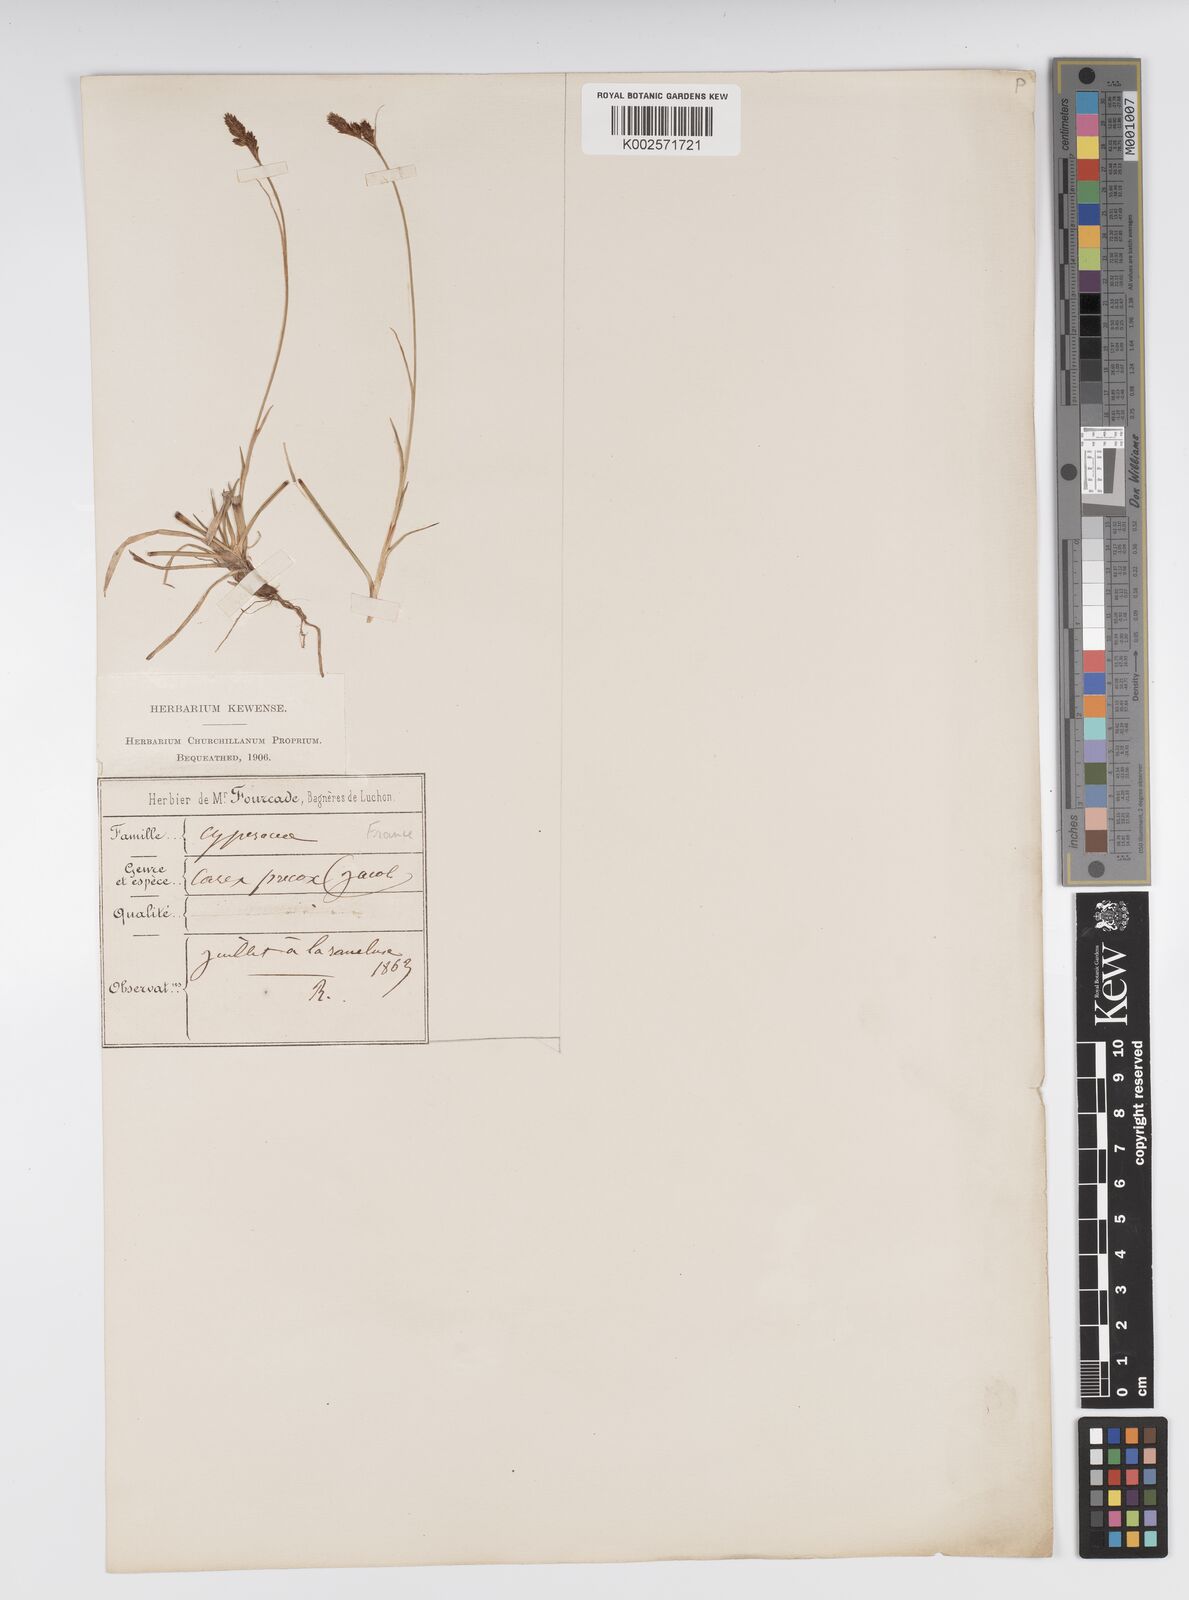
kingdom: Plantae
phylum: Tracheophyta
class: Liliopsida
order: Poales
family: Cyperaceae
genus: Carex
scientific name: Carex caryophyllea
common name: Spring sedge
